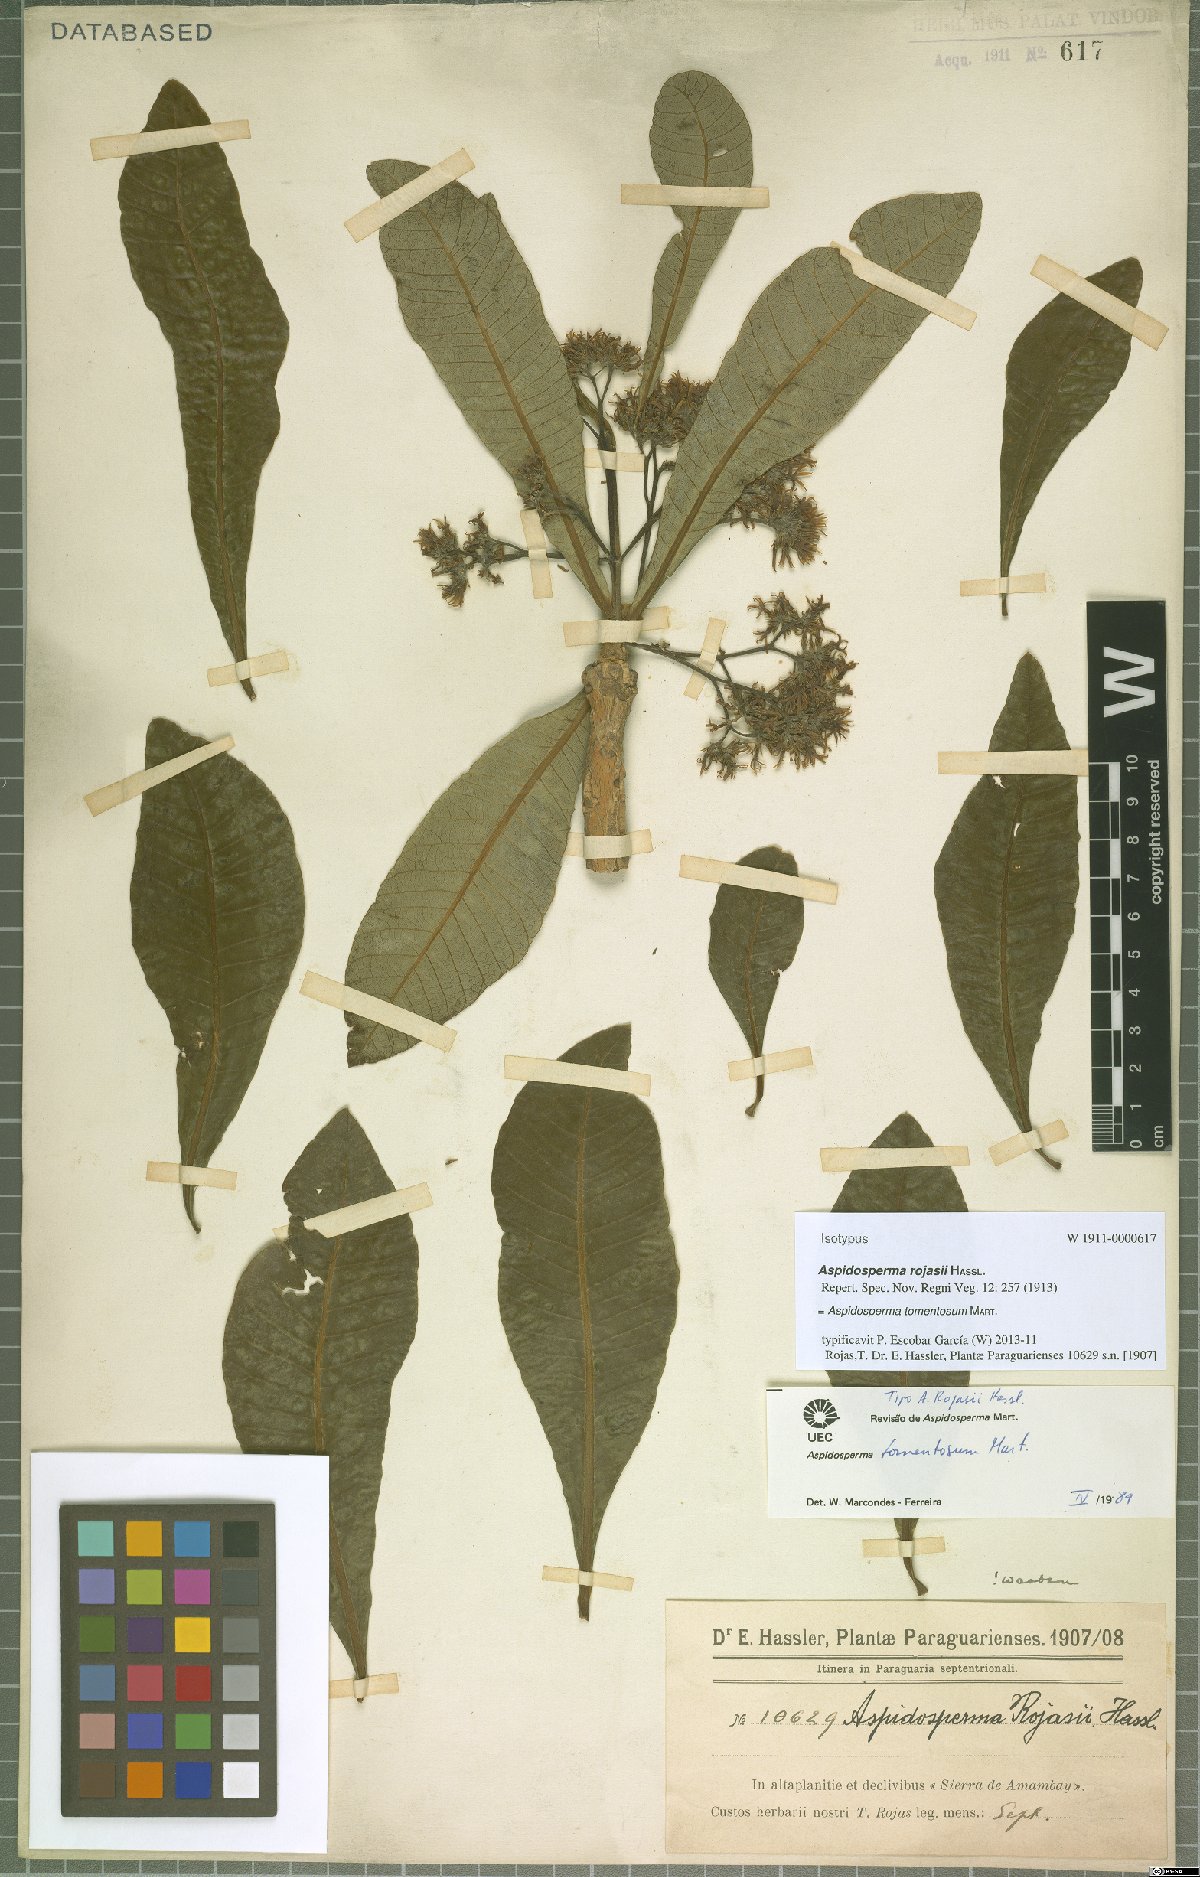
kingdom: Plantae
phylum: Tracheophyta
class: Magnoliopsida
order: Gentianales
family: Apocynaceae
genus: Aspidosperma
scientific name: Aspidosperma tomentosum
